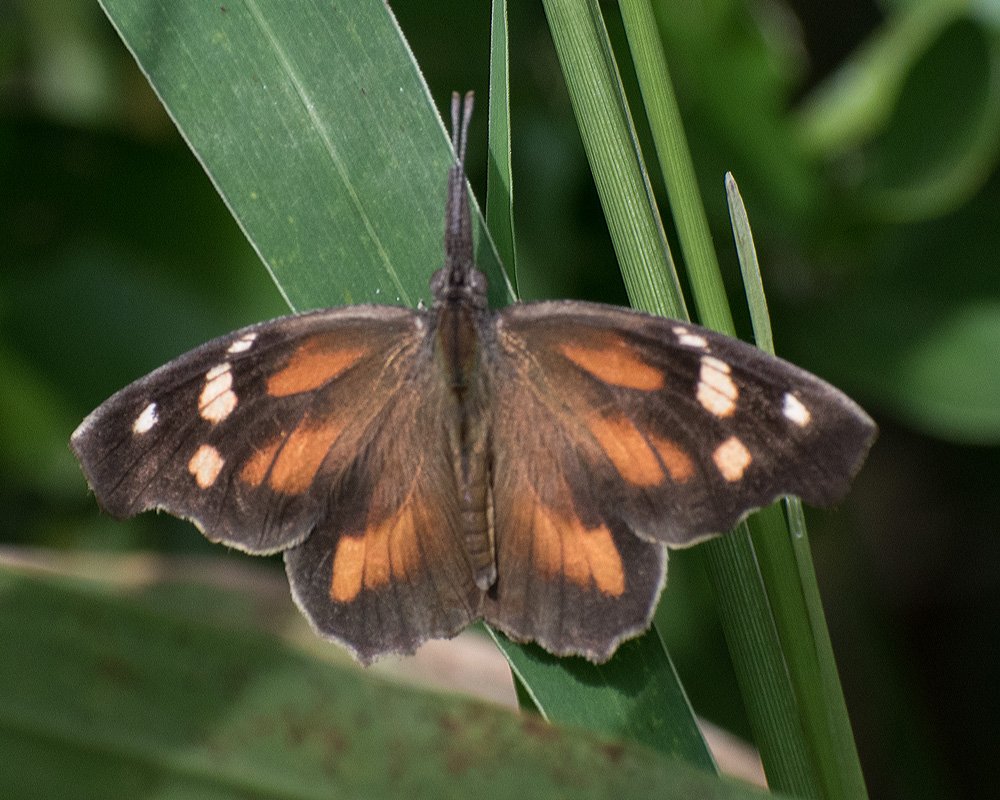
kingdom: Animalia
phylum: Arthropoda
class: Insecta
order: Lepidoptera
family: Nymphalidae
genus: Libytheana
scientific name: Libytheana carinenta
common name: American Snout
